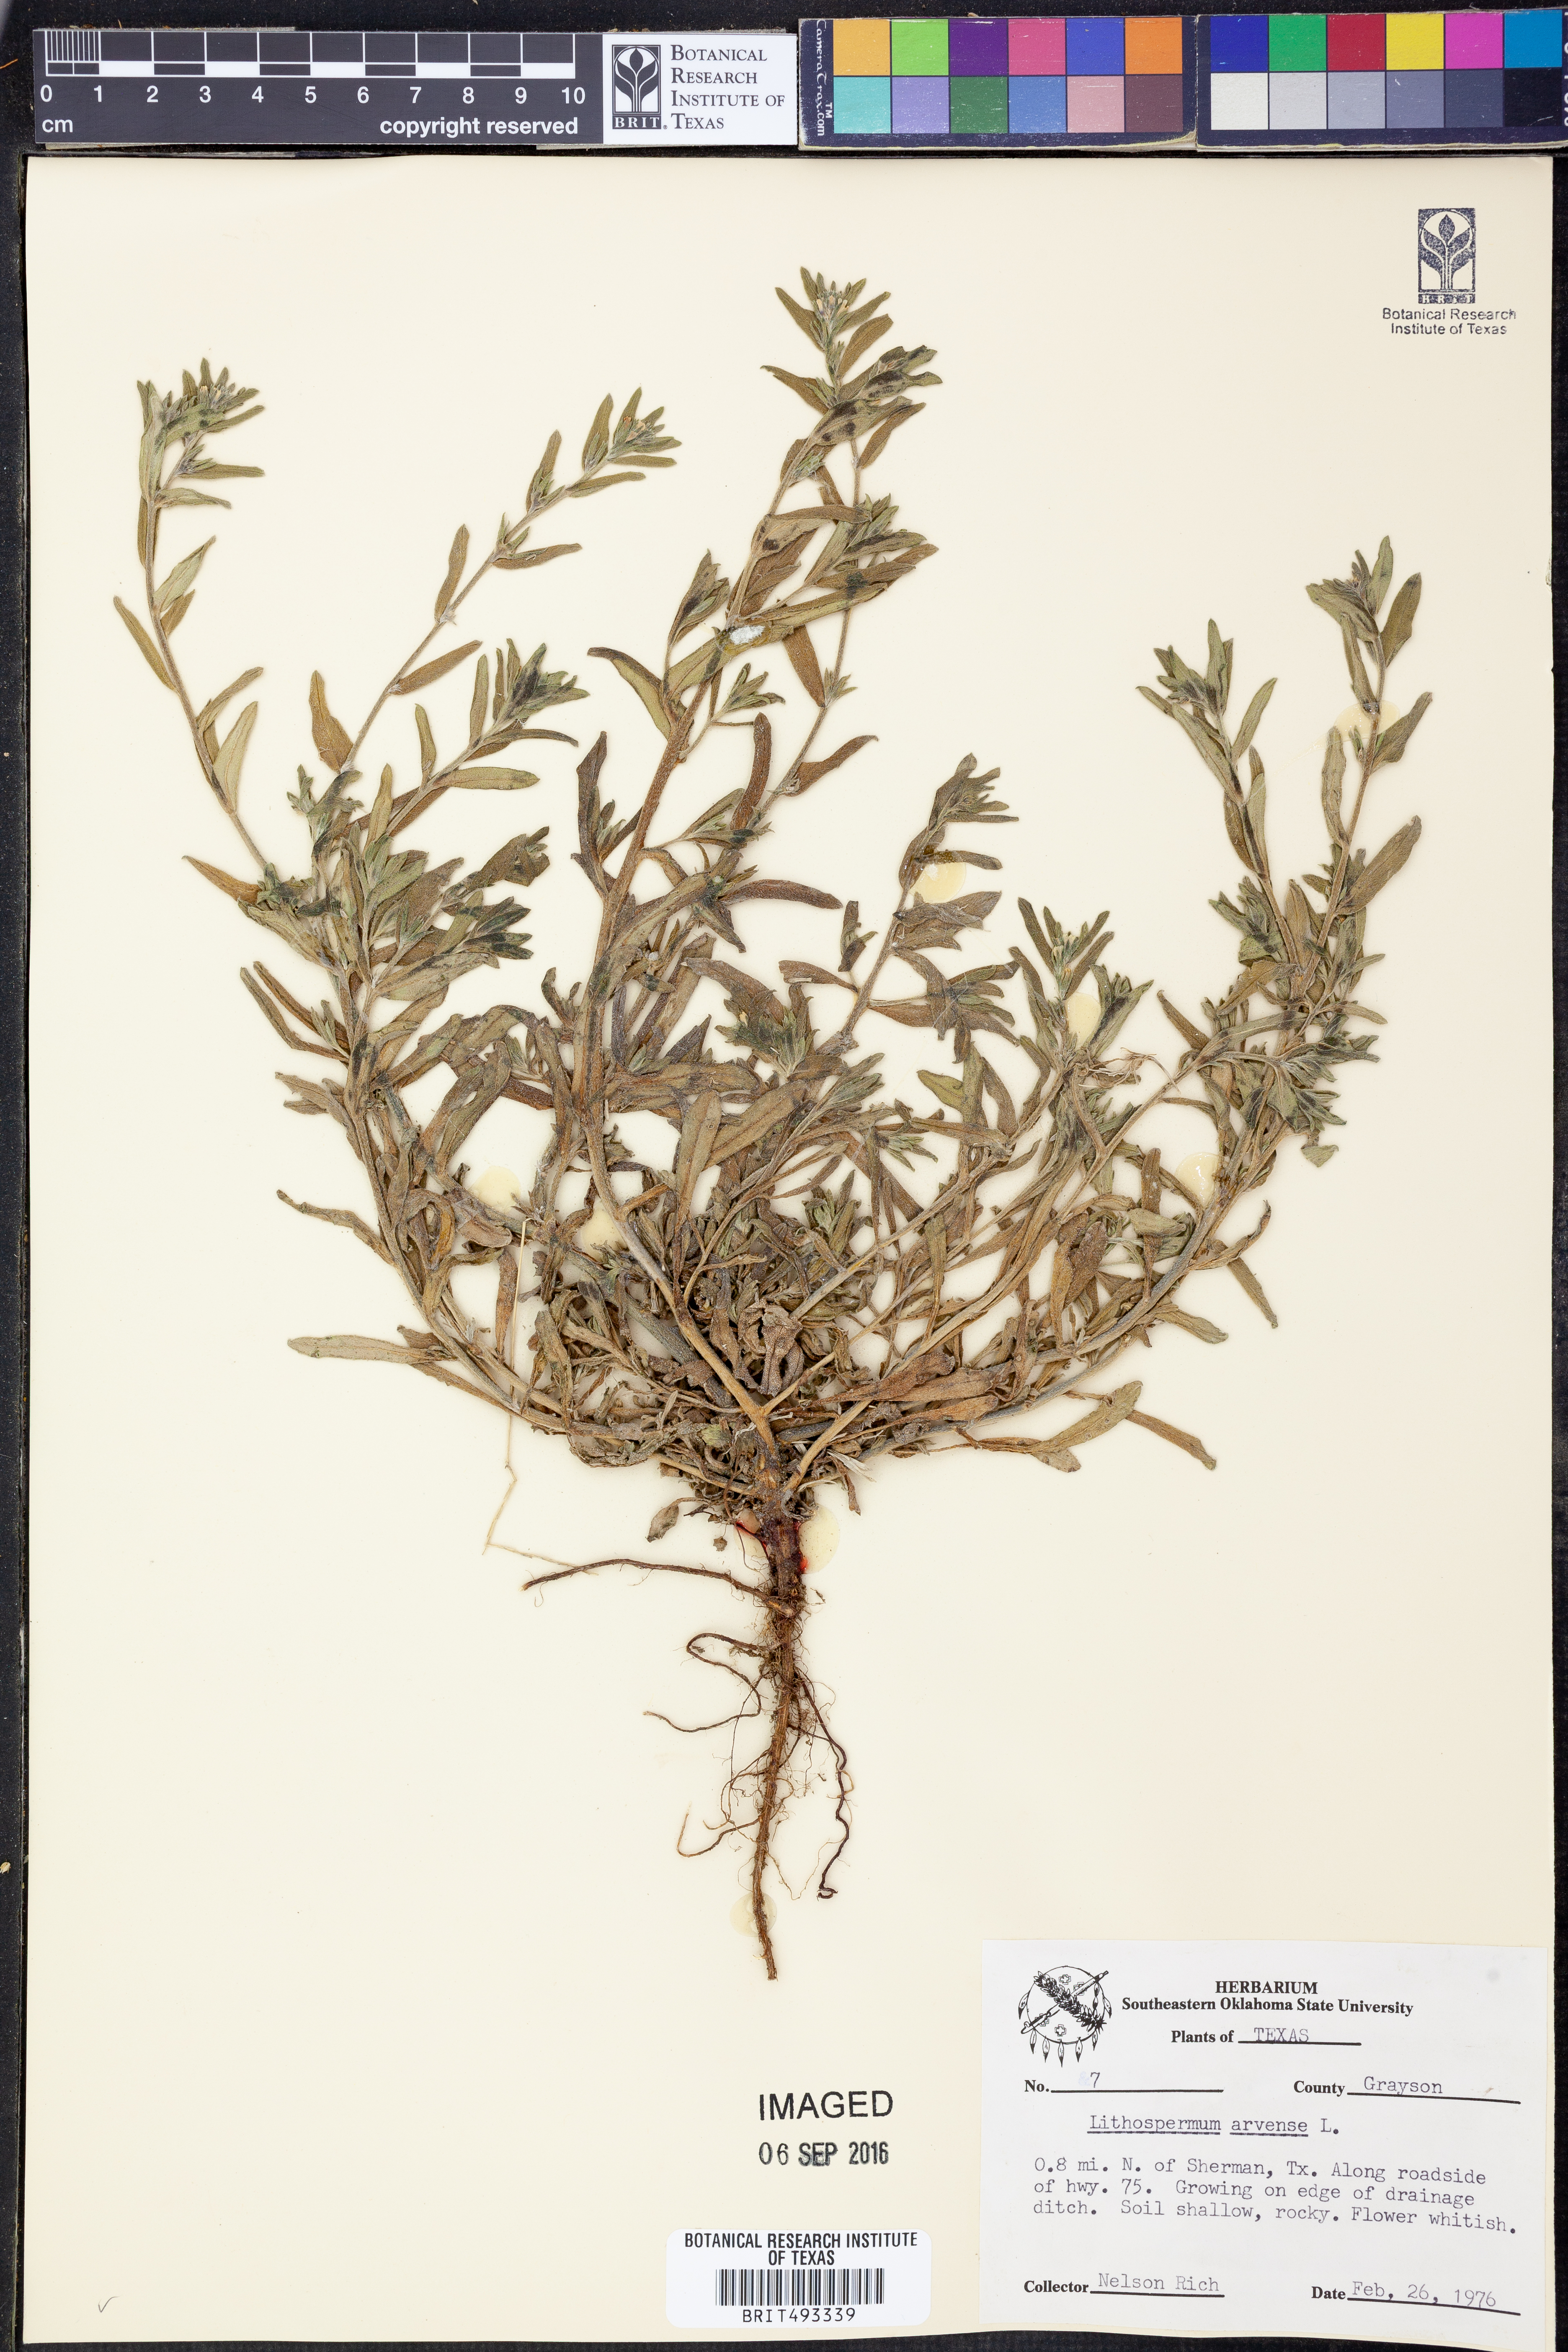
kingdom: Plantae
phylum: Tracheophyta
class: Magnoliopsida
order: Boraginales
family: Boraginaceae
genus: Lithospermum
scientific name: Lithospermum erythrorhizon
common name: Purple gromwell
